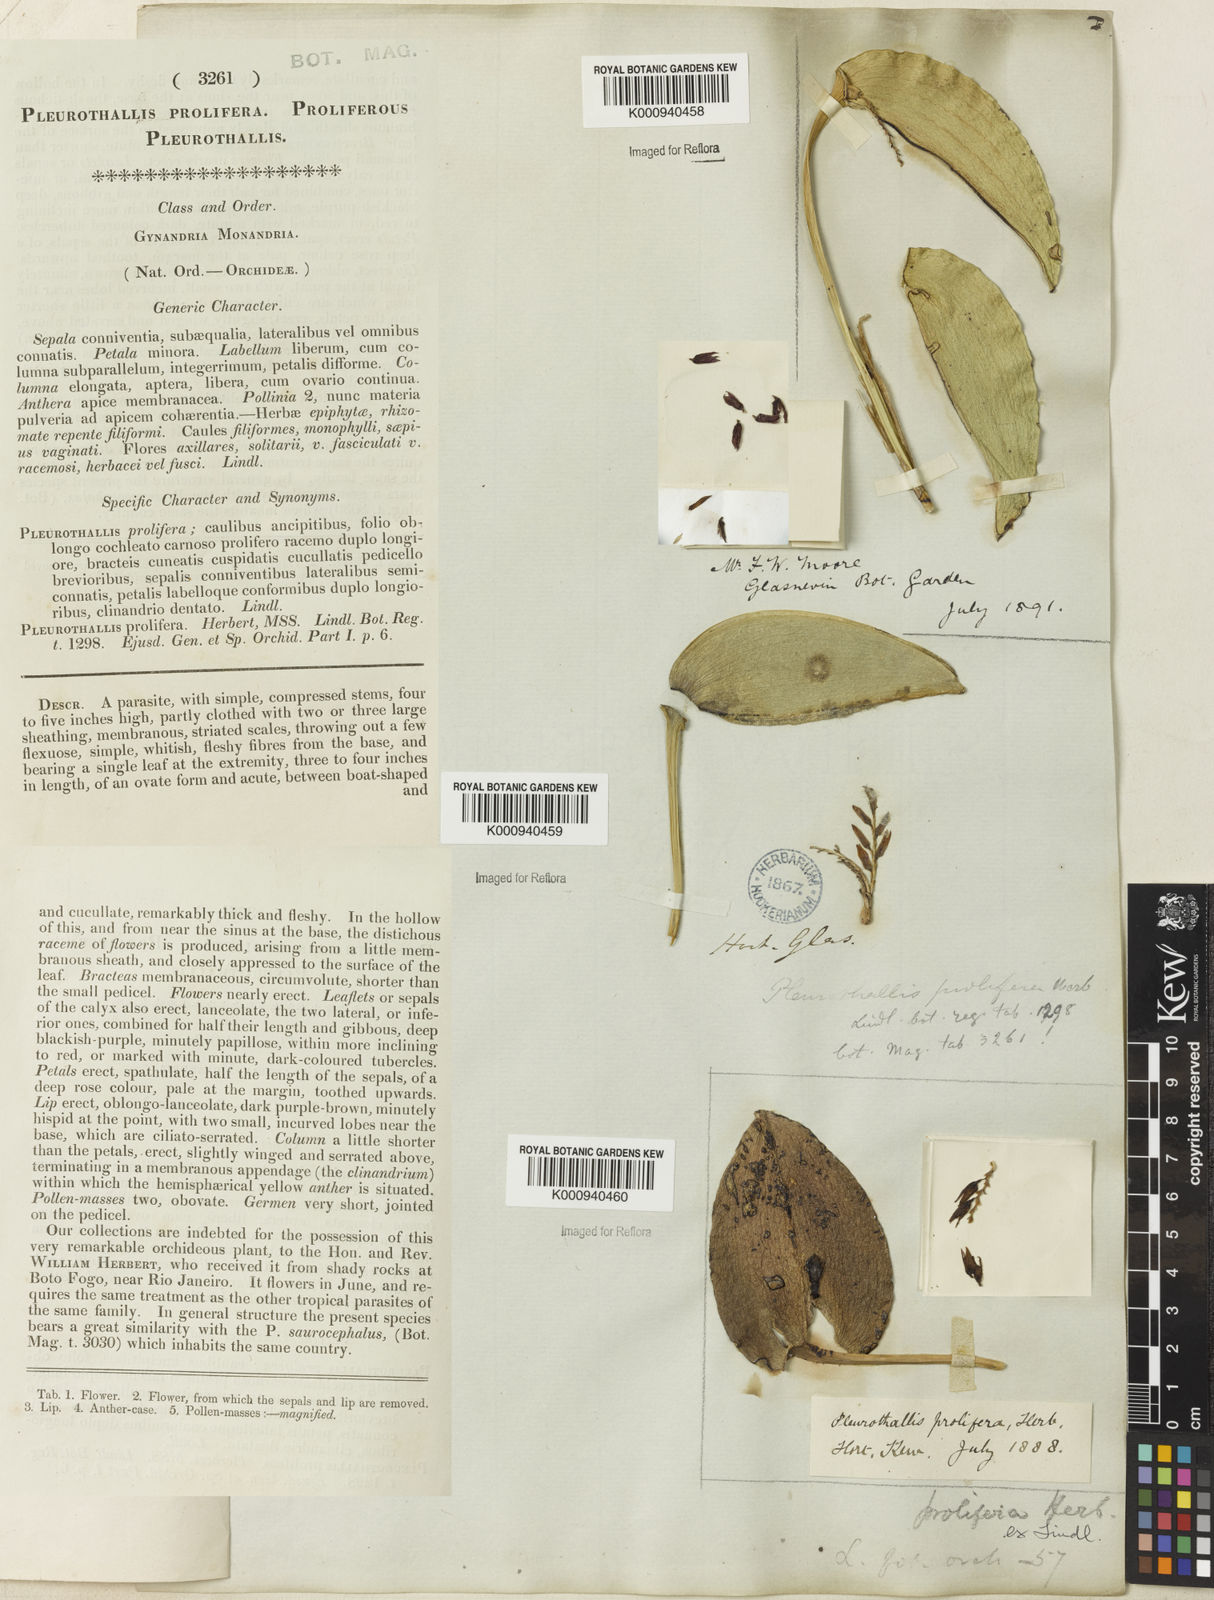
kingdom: Plantae
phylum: Tracheophyta
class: Liliopsida
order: Asparagales
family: Orchidaceae
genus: Acianthera
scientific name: Acianthera prolifera
